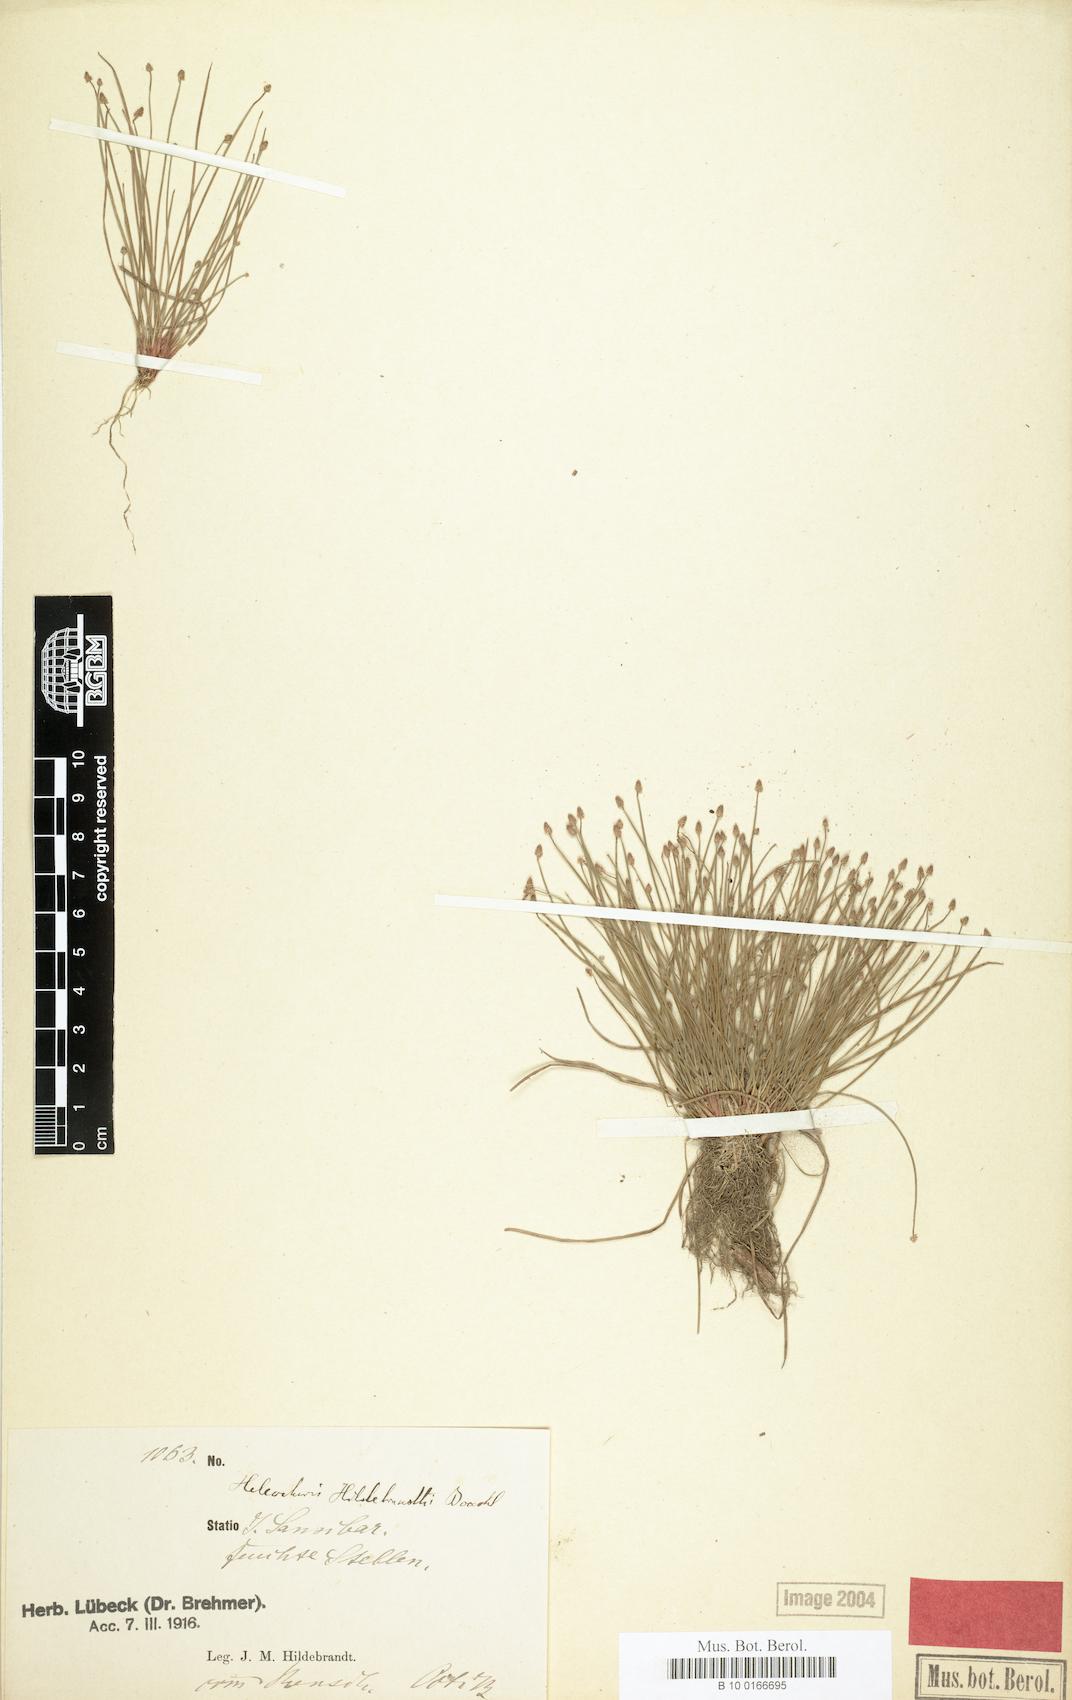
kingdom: Plantae
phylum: Tracheophyta
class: Liliopsida
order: Poales
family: Cyperaceae
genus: Eleocharis
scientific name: Eleocharis nigrescens
